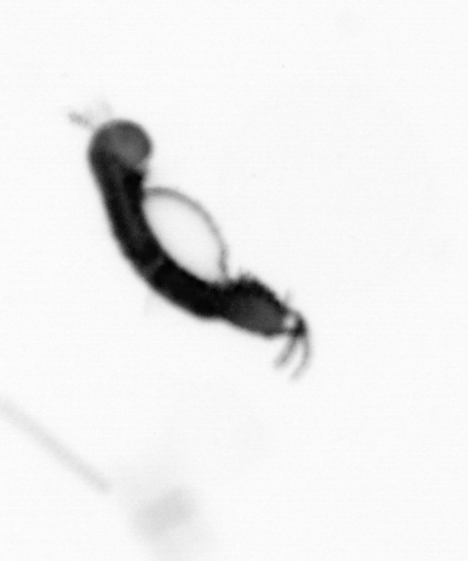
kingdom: Animalia
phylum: Annelida
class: Polychaeta
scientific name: Polychaeta
